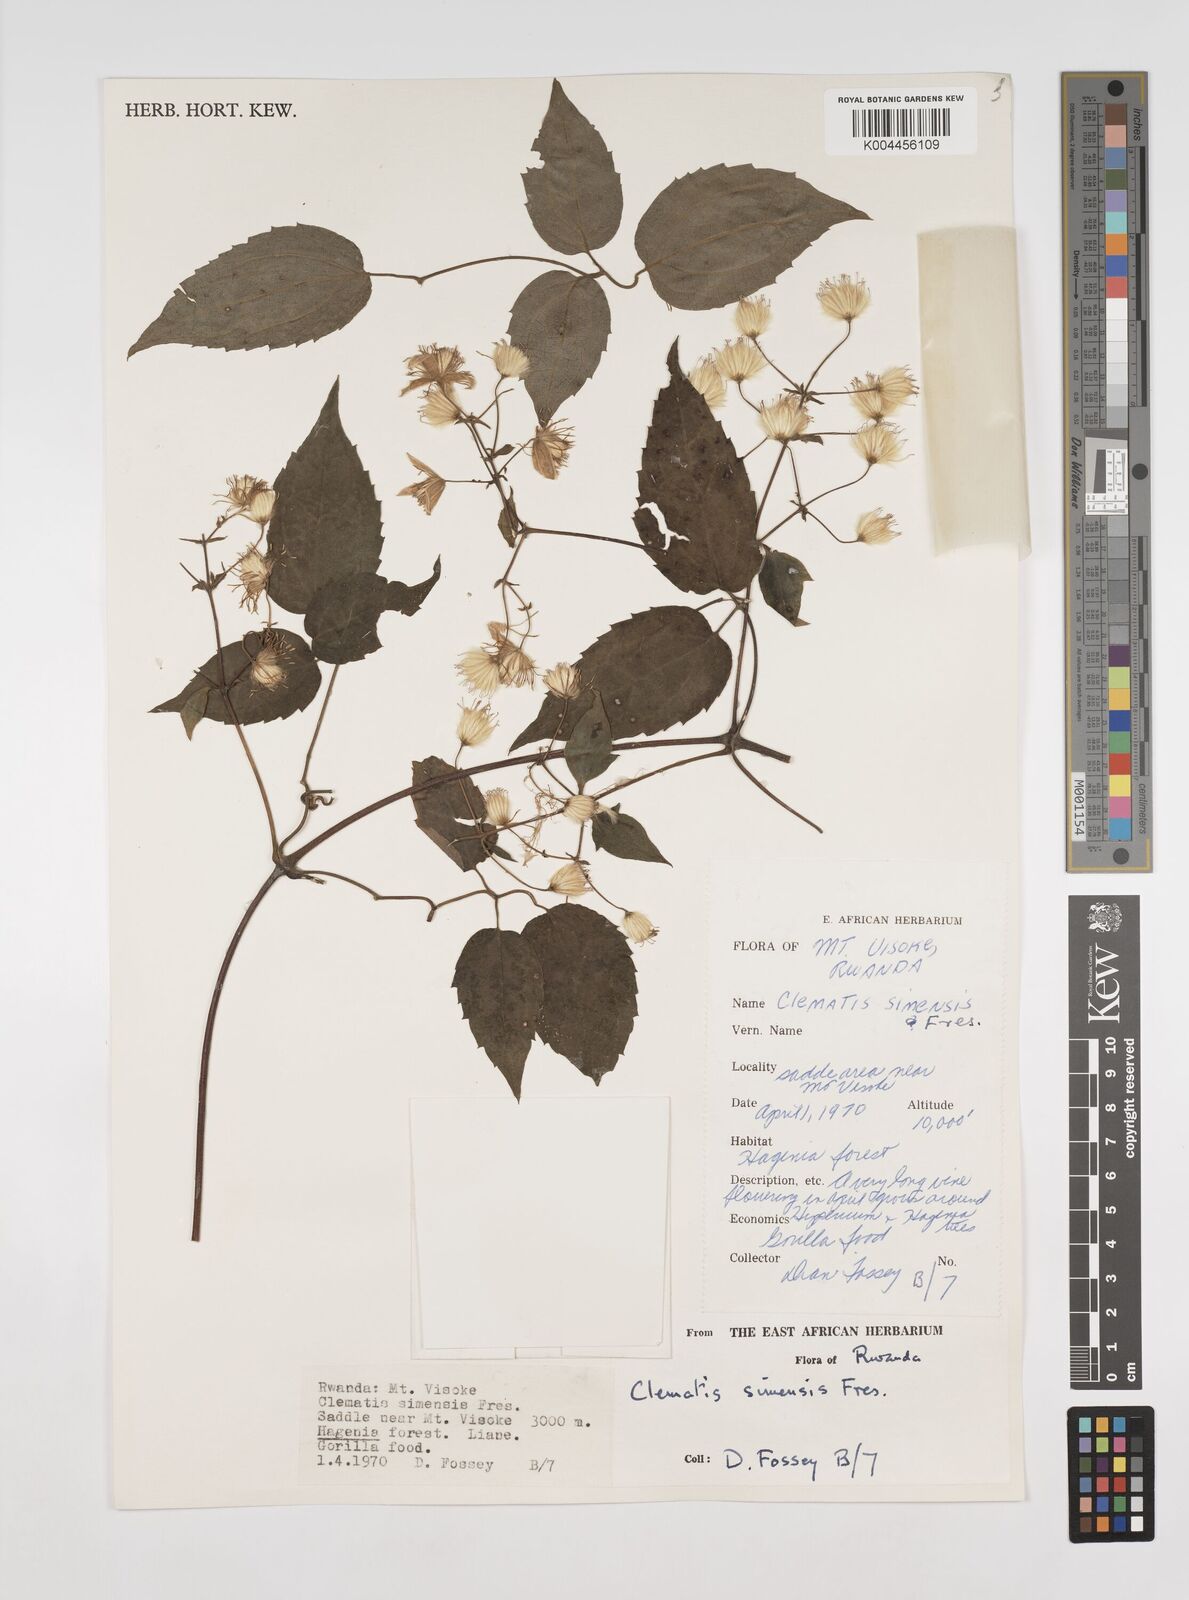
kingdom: Plantae
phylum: Tracheophyta
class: Magnoliopsida
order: Ranunculales
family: Ranunculaceae
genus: Clematis
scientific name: Clematis simensis
